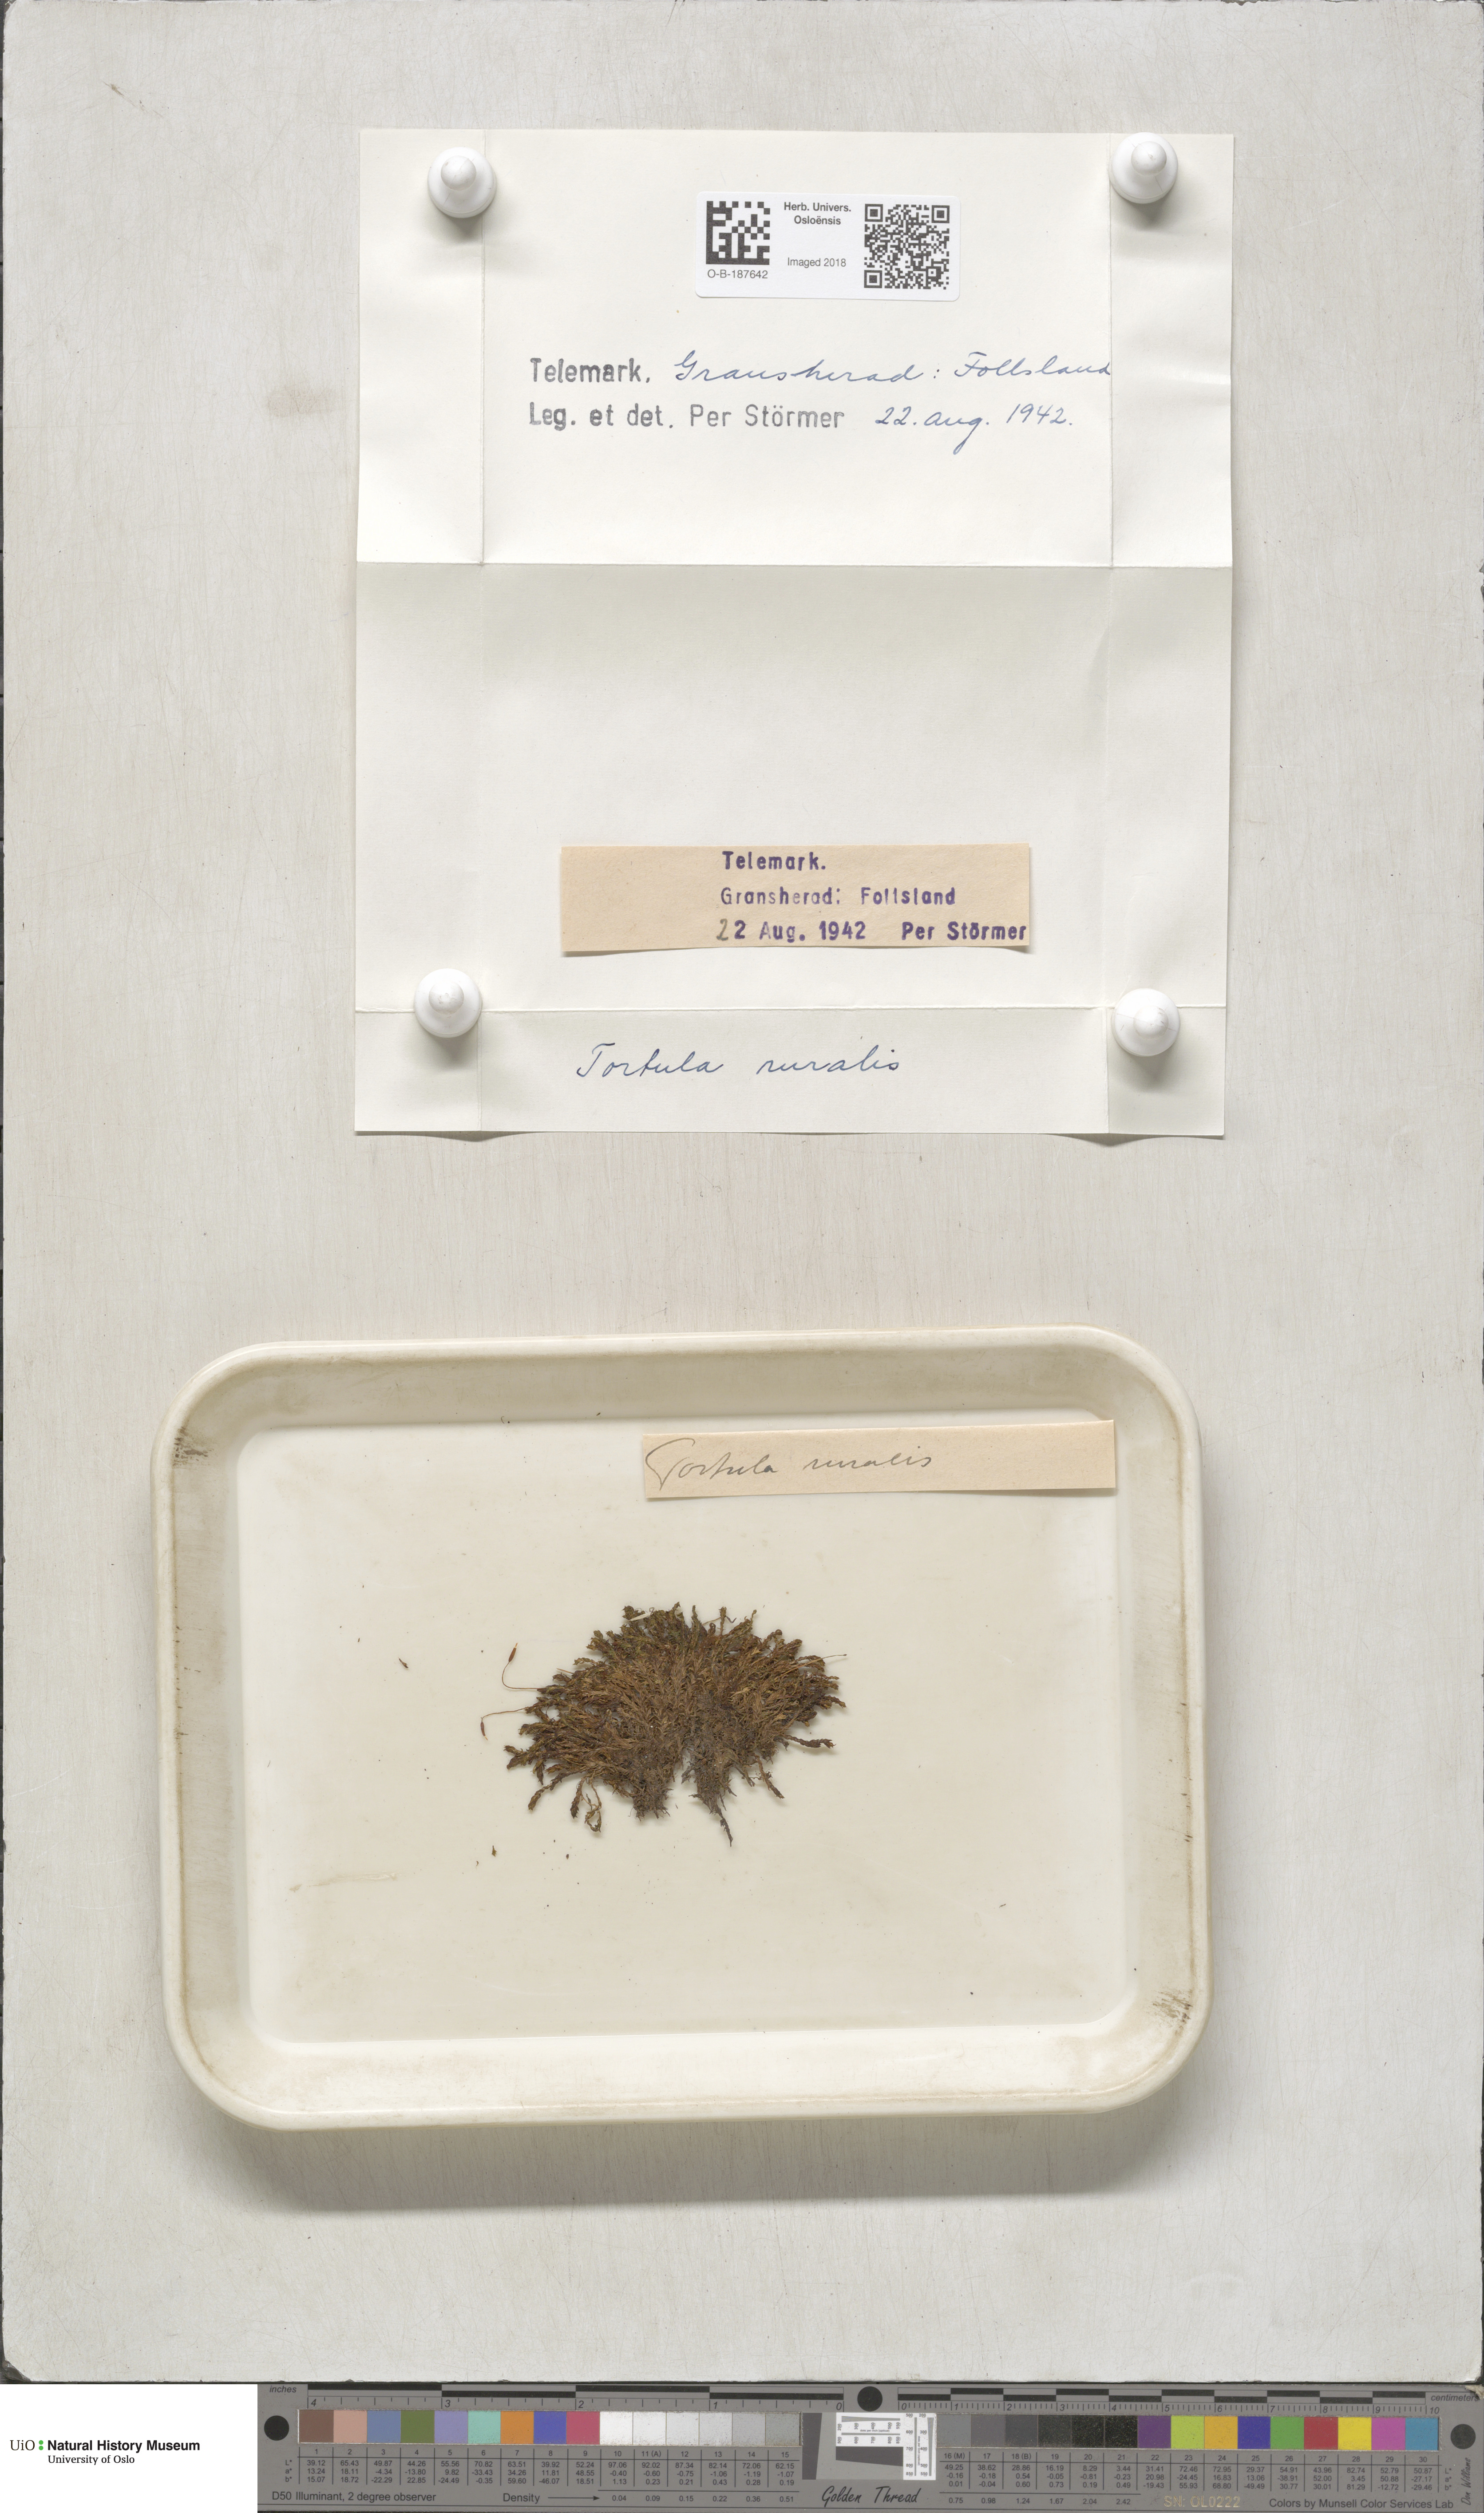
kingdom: Plantae
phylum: Bryophyta
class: Bryopsida
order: Pottiales
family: Pottiaceae
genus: Syntrichia
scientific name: Syntrichia ruralis
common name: Sidewalk screw moss
